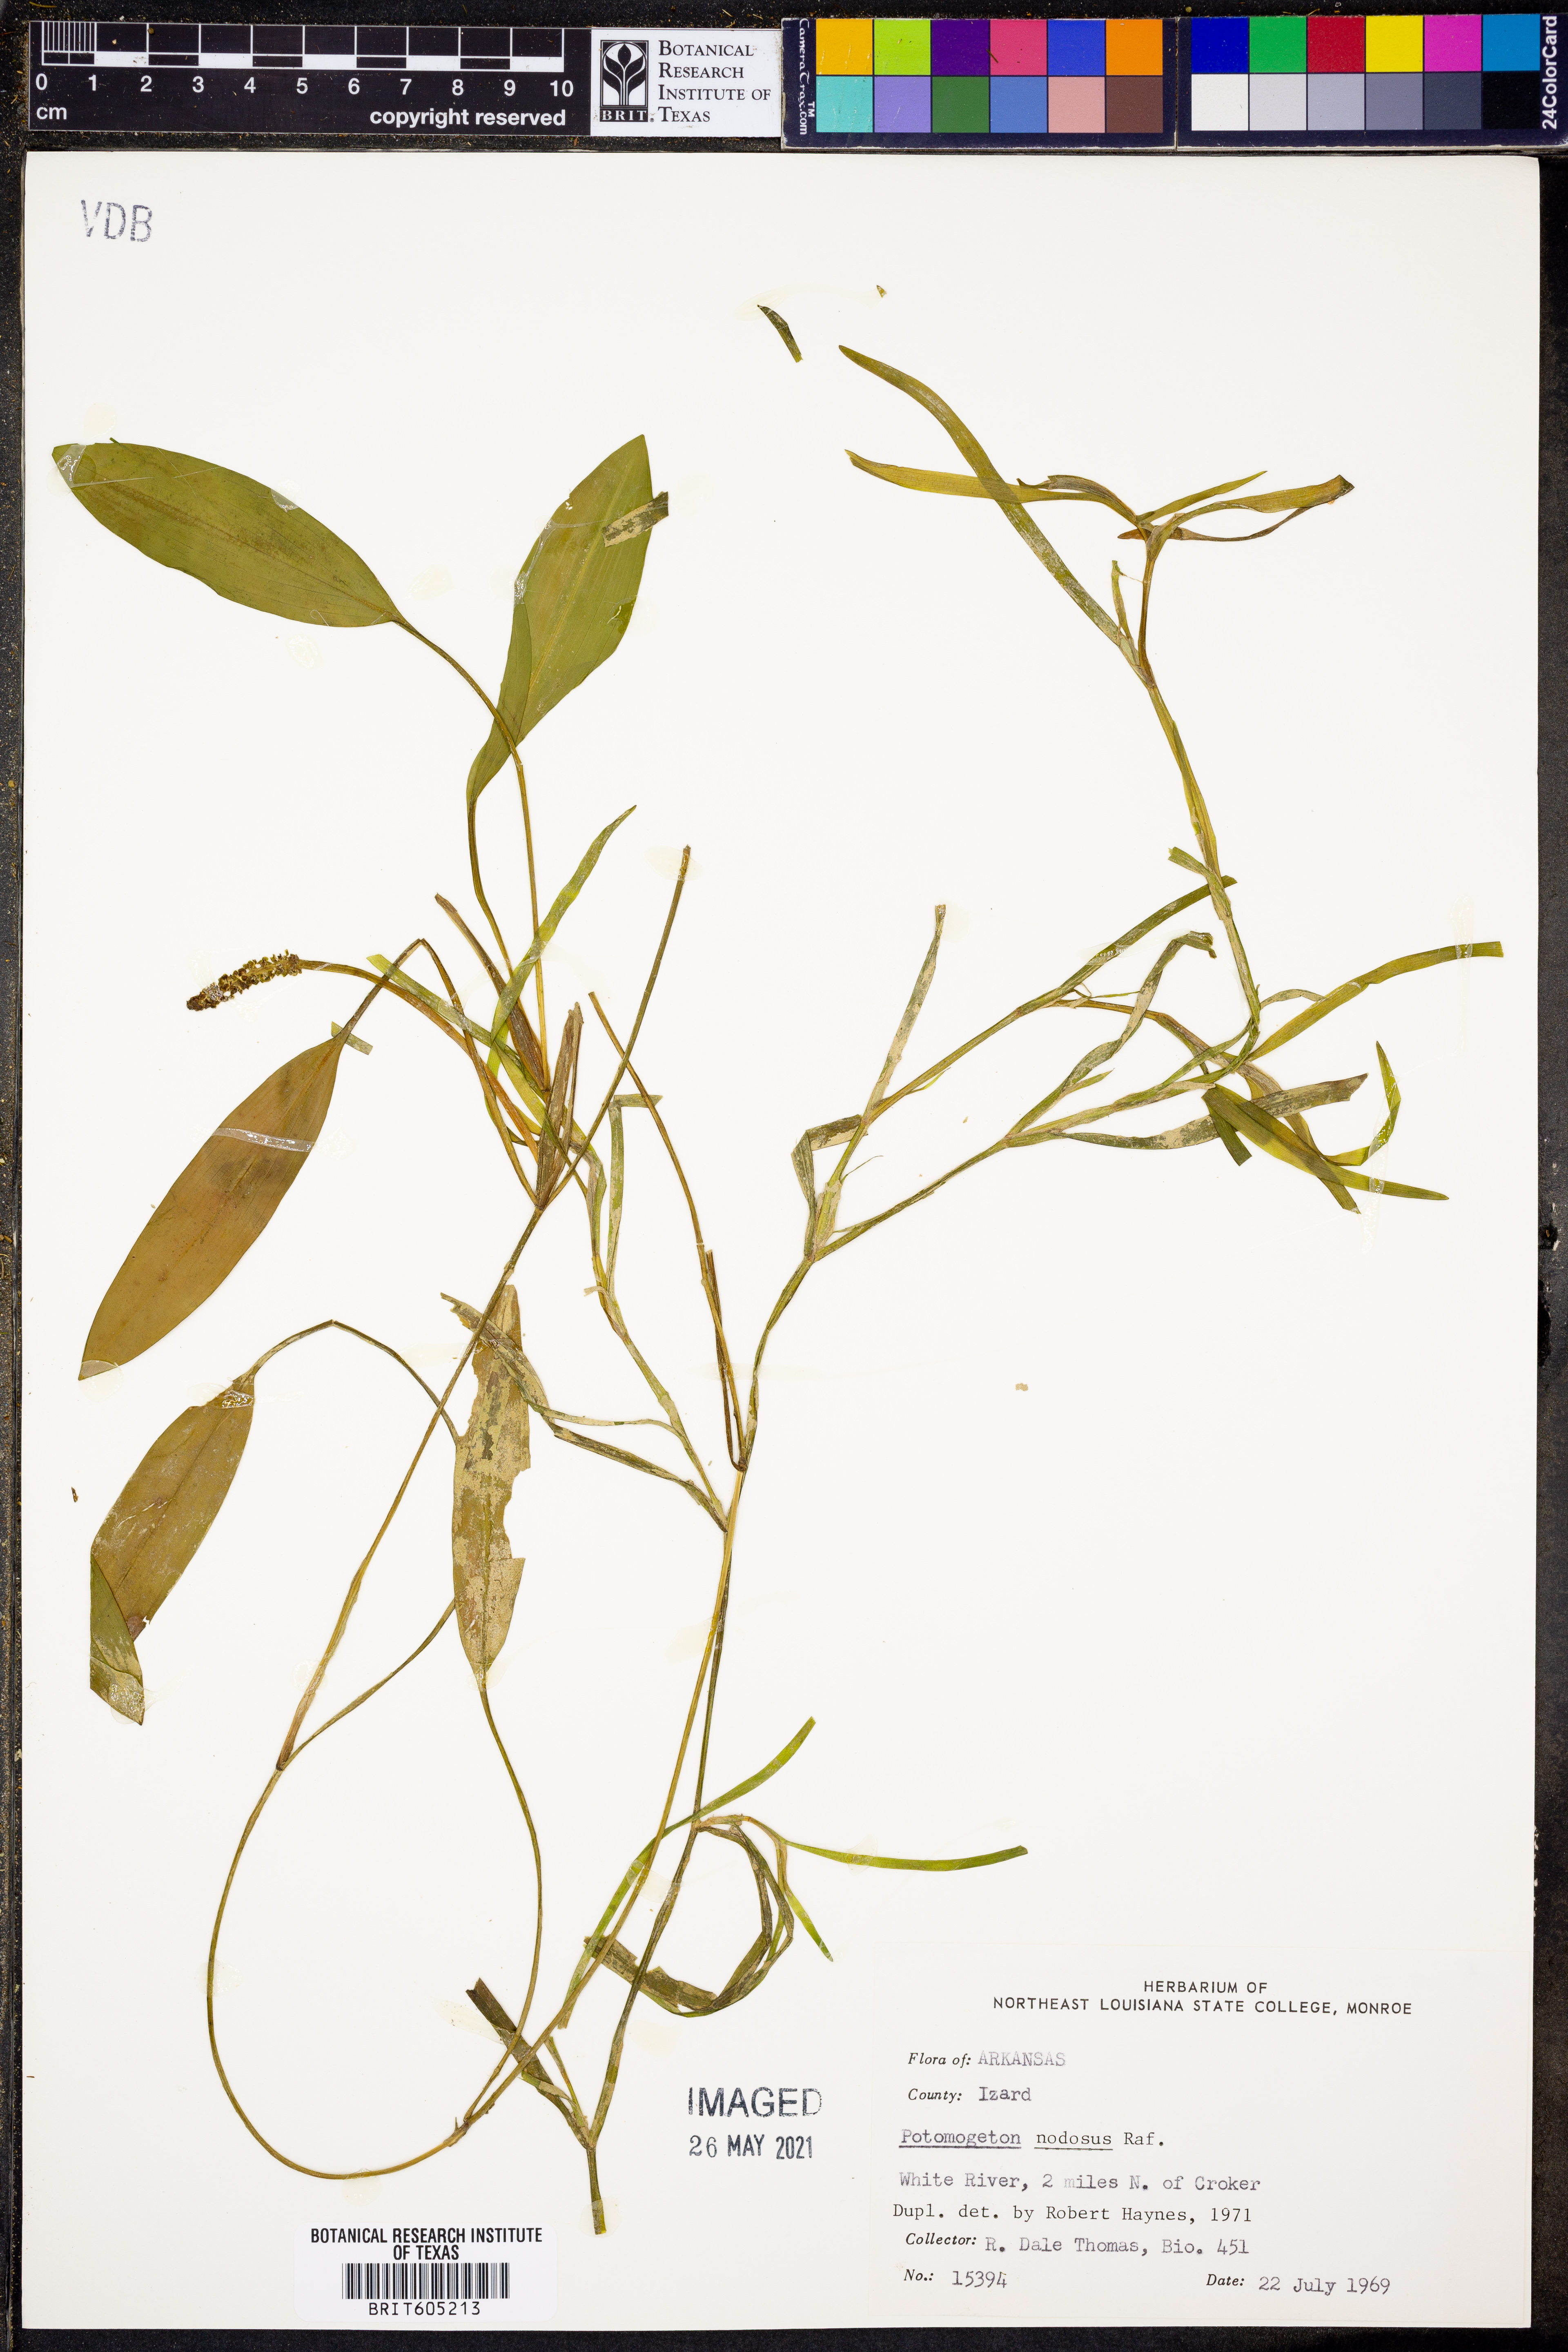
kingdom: Plantae
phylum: Tracheophyta
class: Liliopsida
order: Alismatales
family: Potamogetonaceae
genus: Potamogeton
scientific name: Potamogeton nodosus
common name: Loddon pondweed
